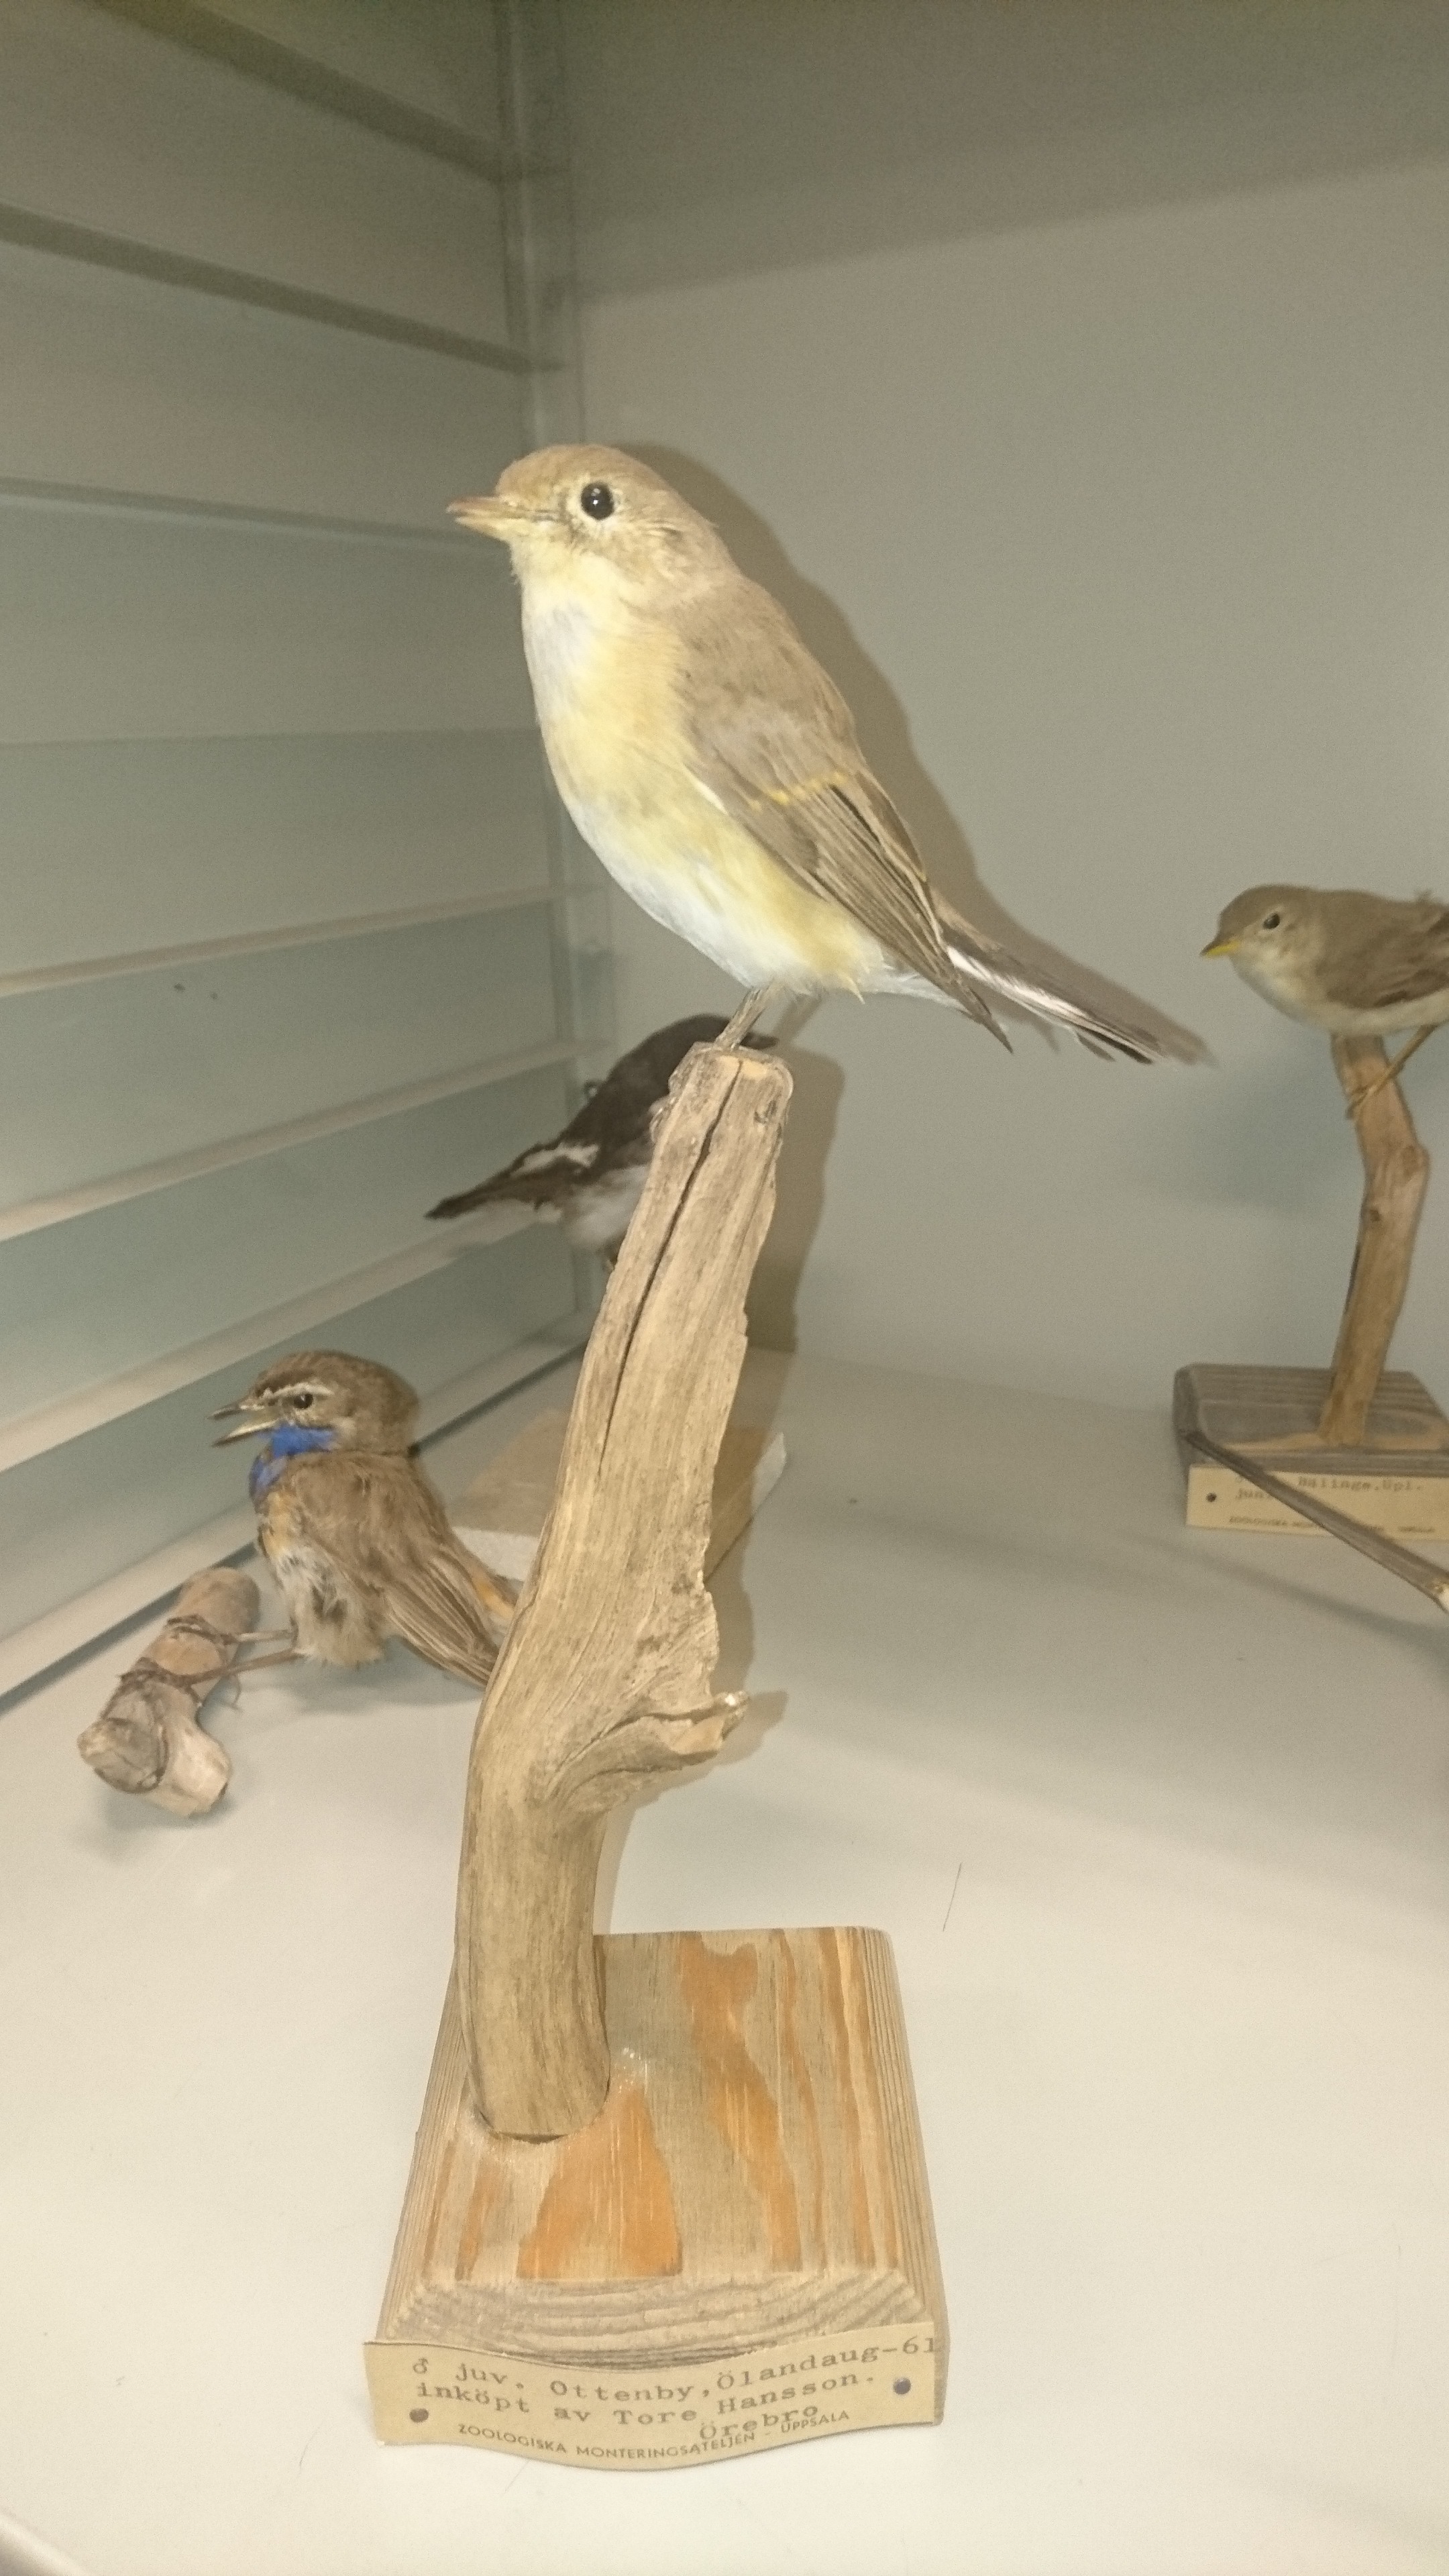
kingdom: Animalia
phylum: Chordata
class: Aves
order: Passeriformes
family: Muscicapidae
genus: Ficedula
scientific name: Ficedula parva
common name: Red-breasted flycatcher
